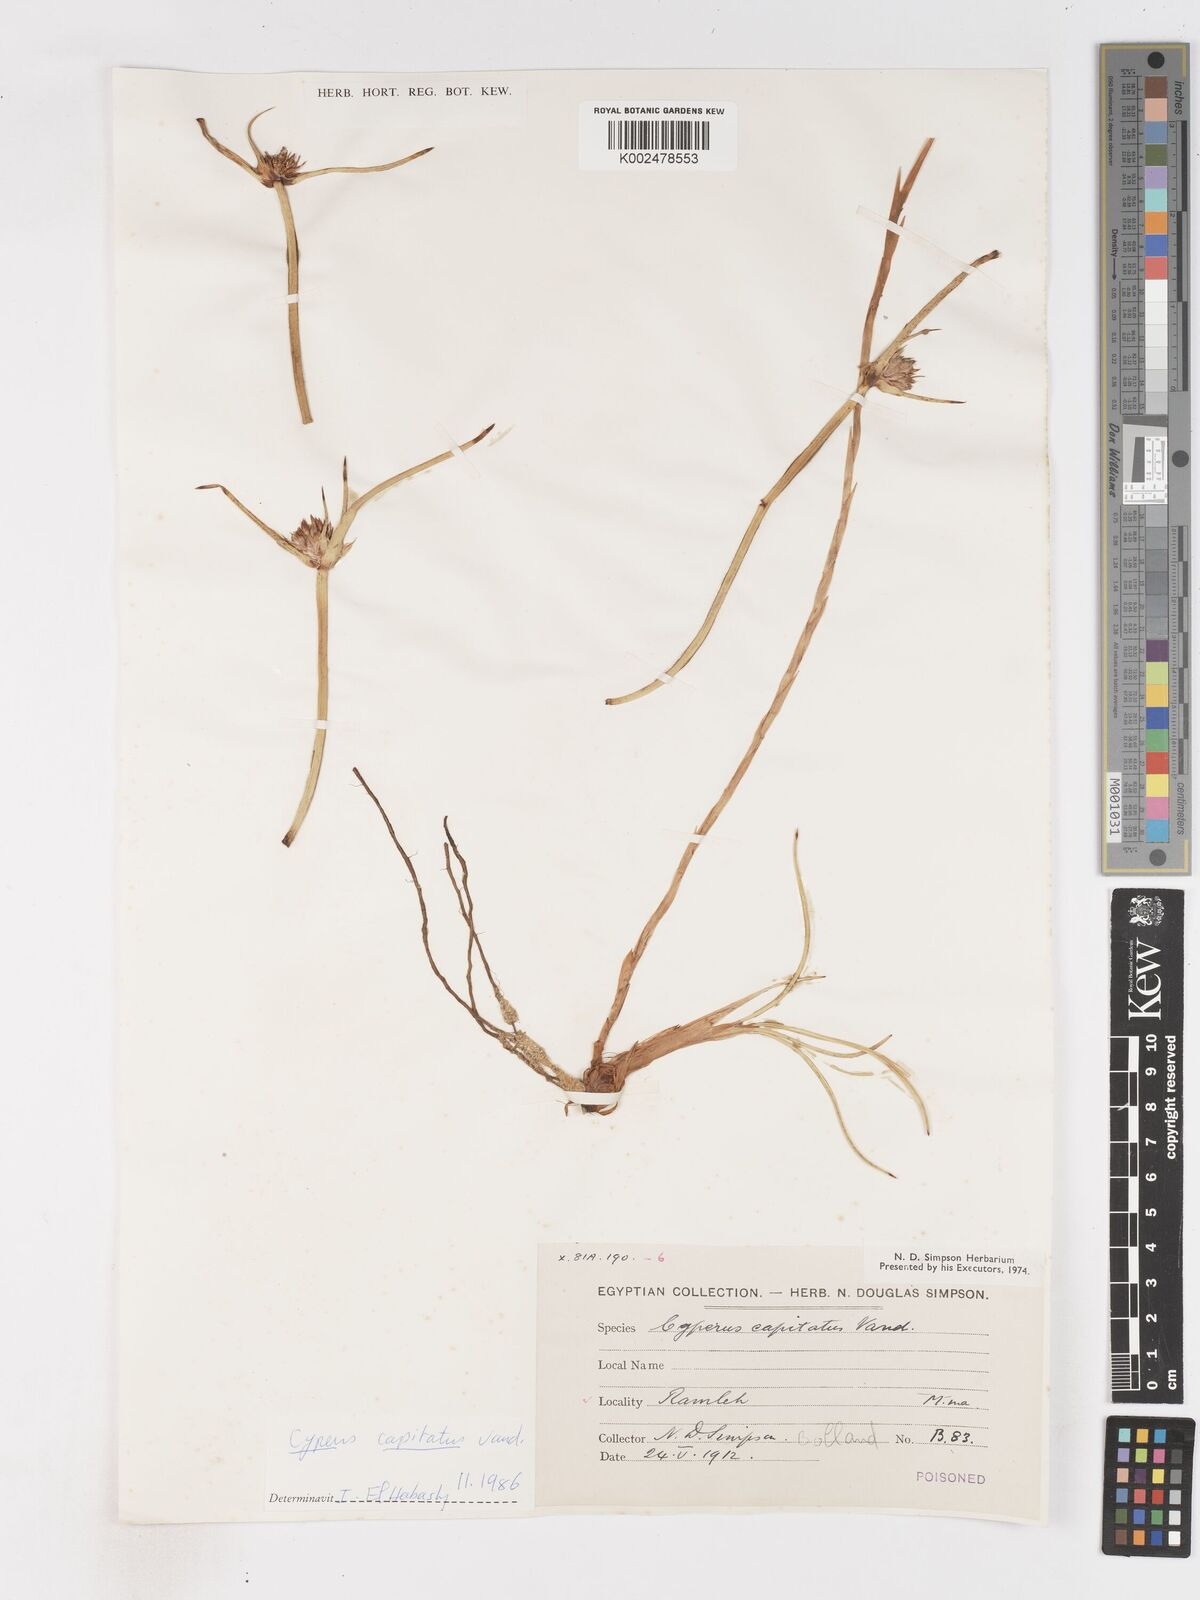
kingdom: Plantae
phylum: Tracheophyta
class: Liliopsida
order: Poales
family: Cyperaceae
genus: Cyperus
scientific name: Cyperus capitatus
